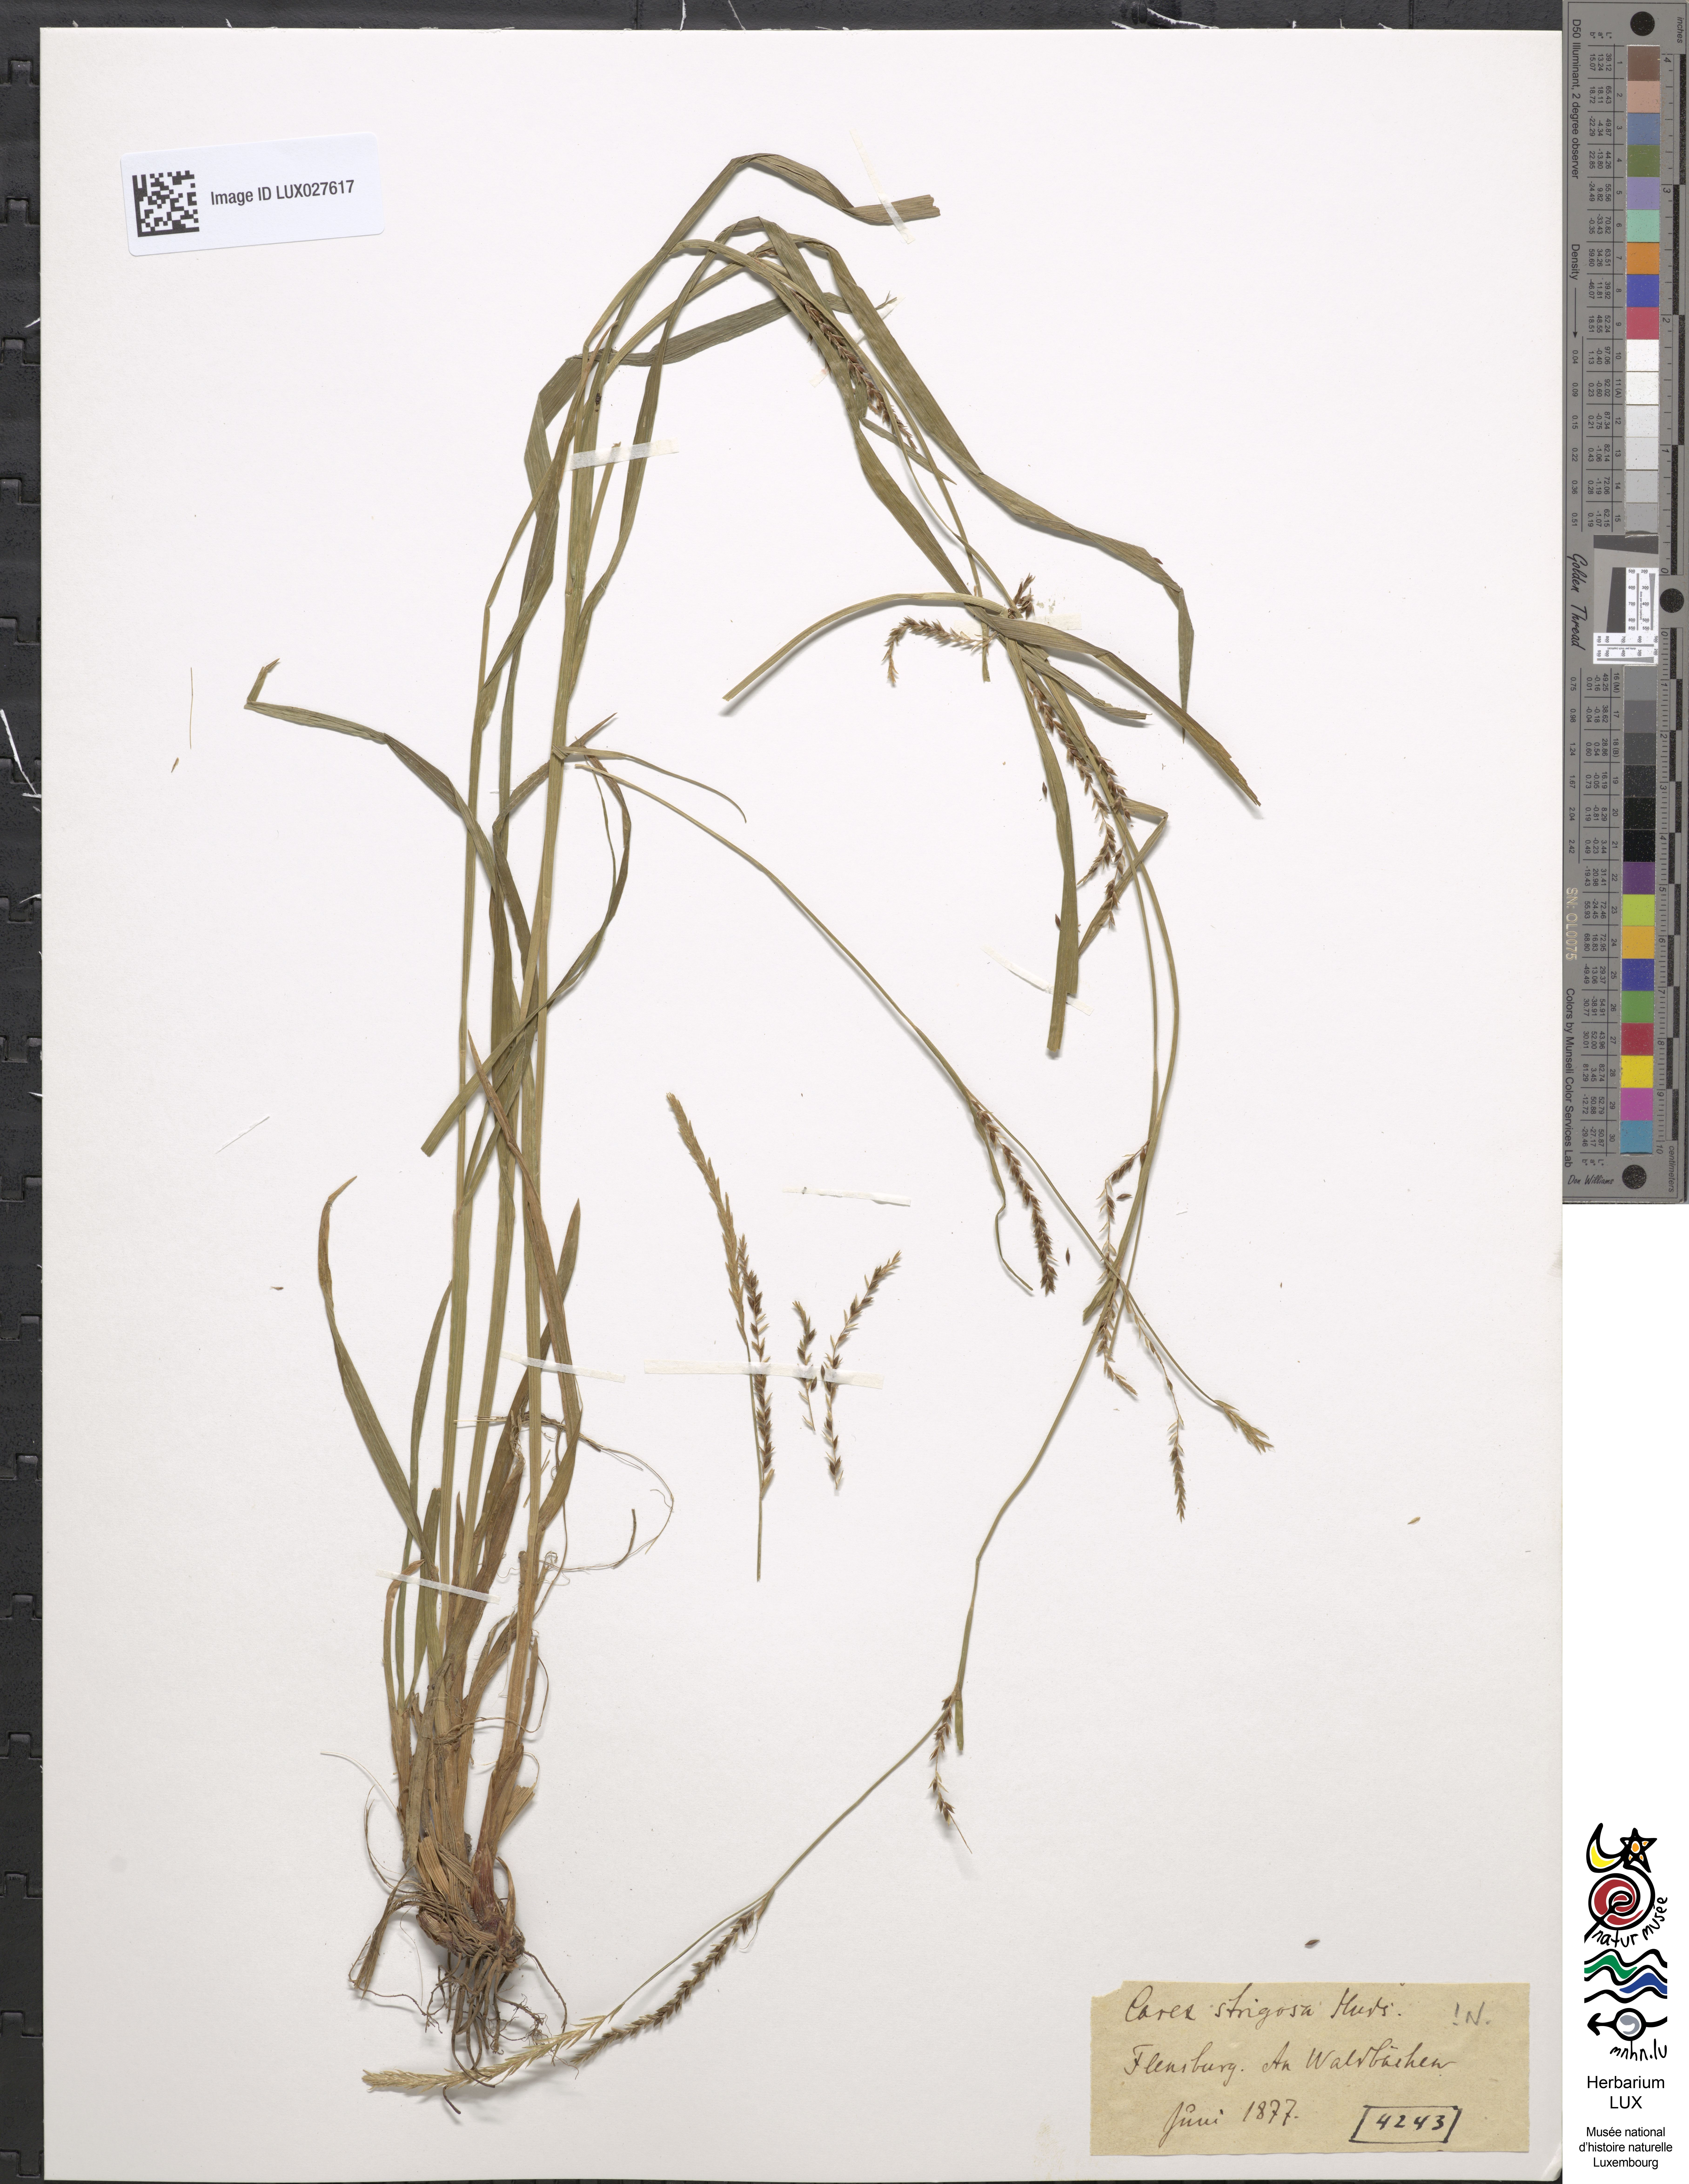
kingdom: Plantae
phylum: Tracheophyta
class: Liliopsida
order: Poales
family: Cyperaceae
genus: Carex
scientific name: Carex strigosa
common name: Thin-spiked wood-sedge
